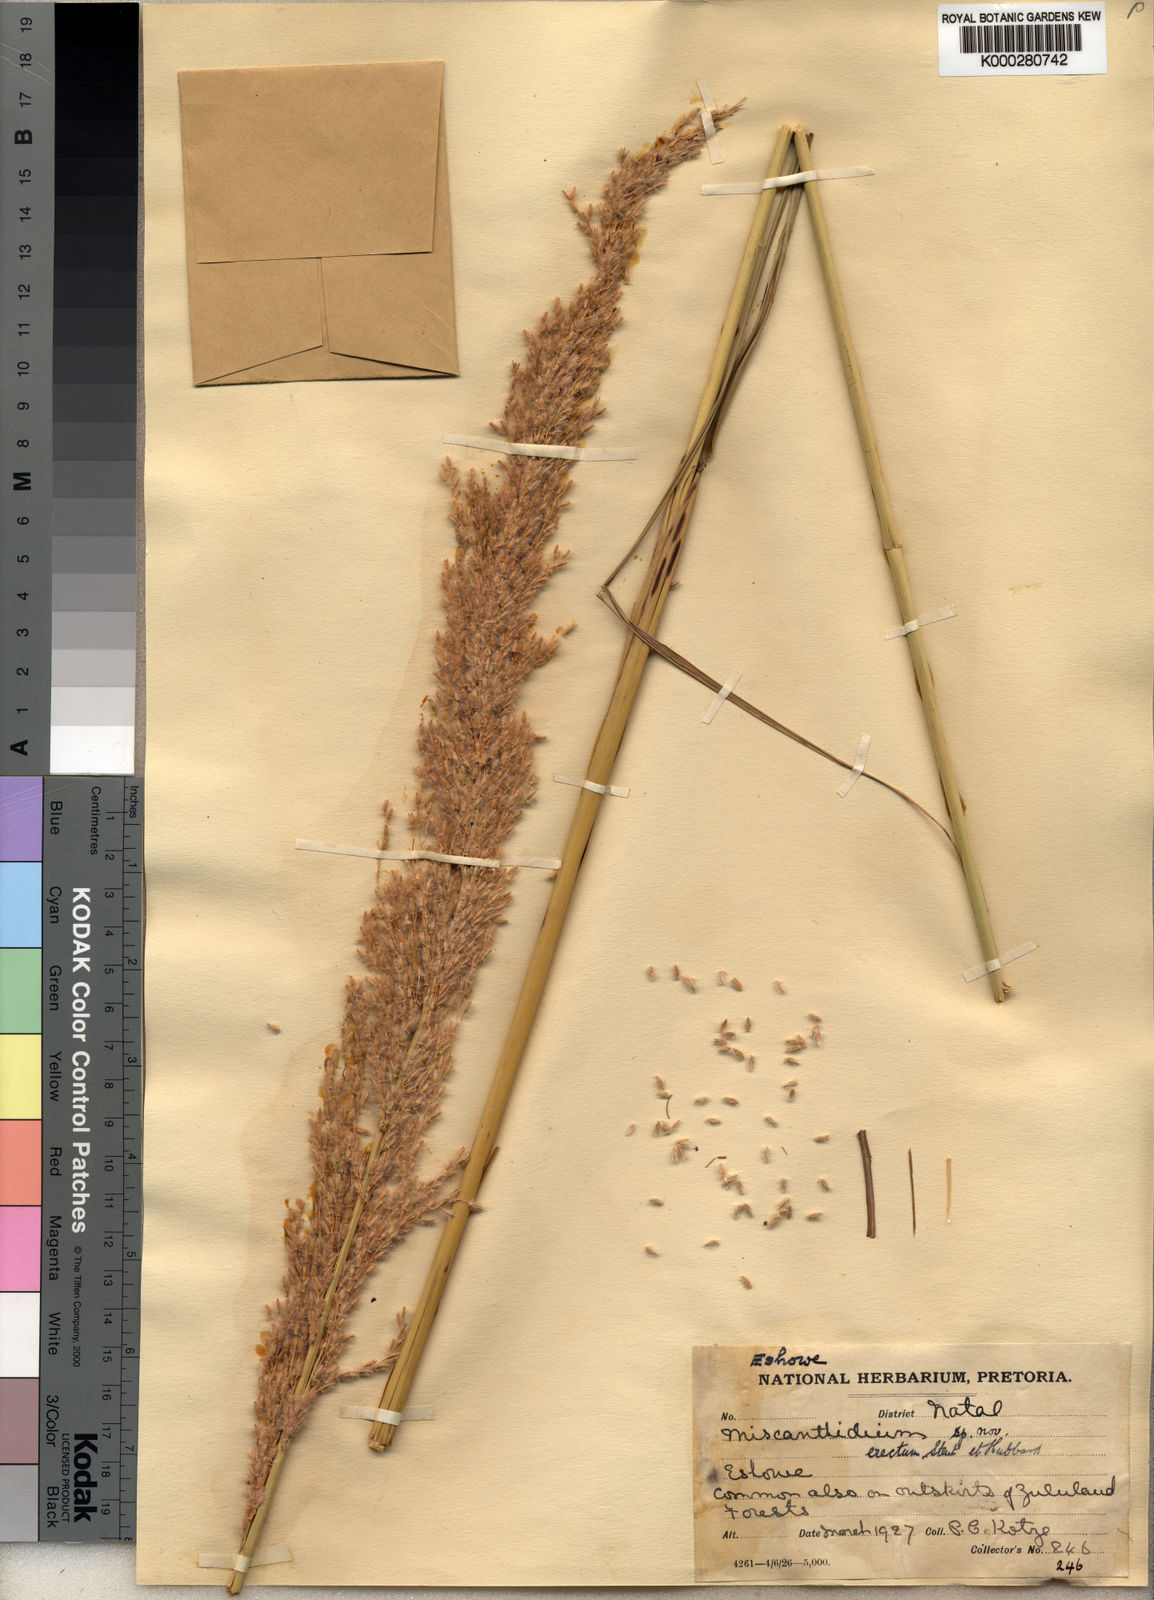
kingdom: Plantae
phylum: Tracheophyta
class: Liliopsida
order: Poales
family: Poaceae
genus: Miscanthus
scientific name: Miscanthus ecklonii
